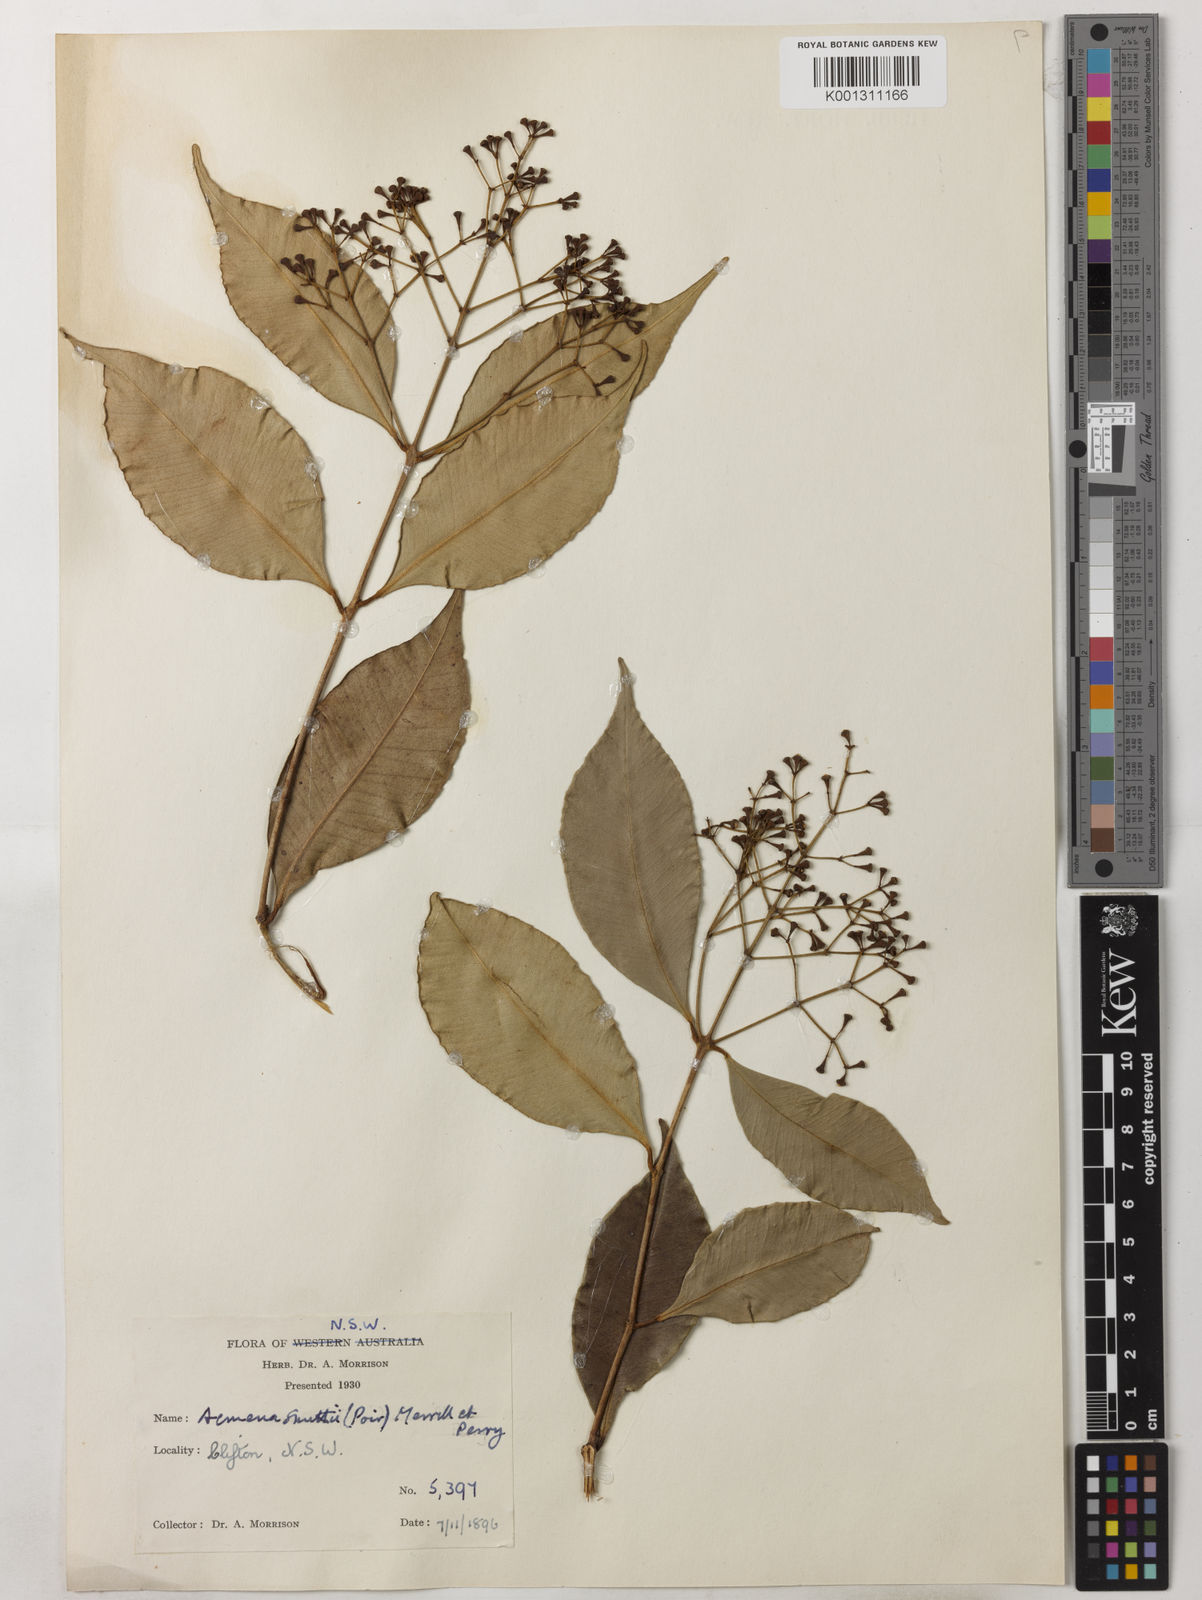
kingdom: Plantae
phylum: Tracheophyta
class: Magnoliopsida
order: Myrtales
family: Myrtaceae
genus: Syzygium
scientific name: Syzygium smithii
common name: Lilly-pilly
